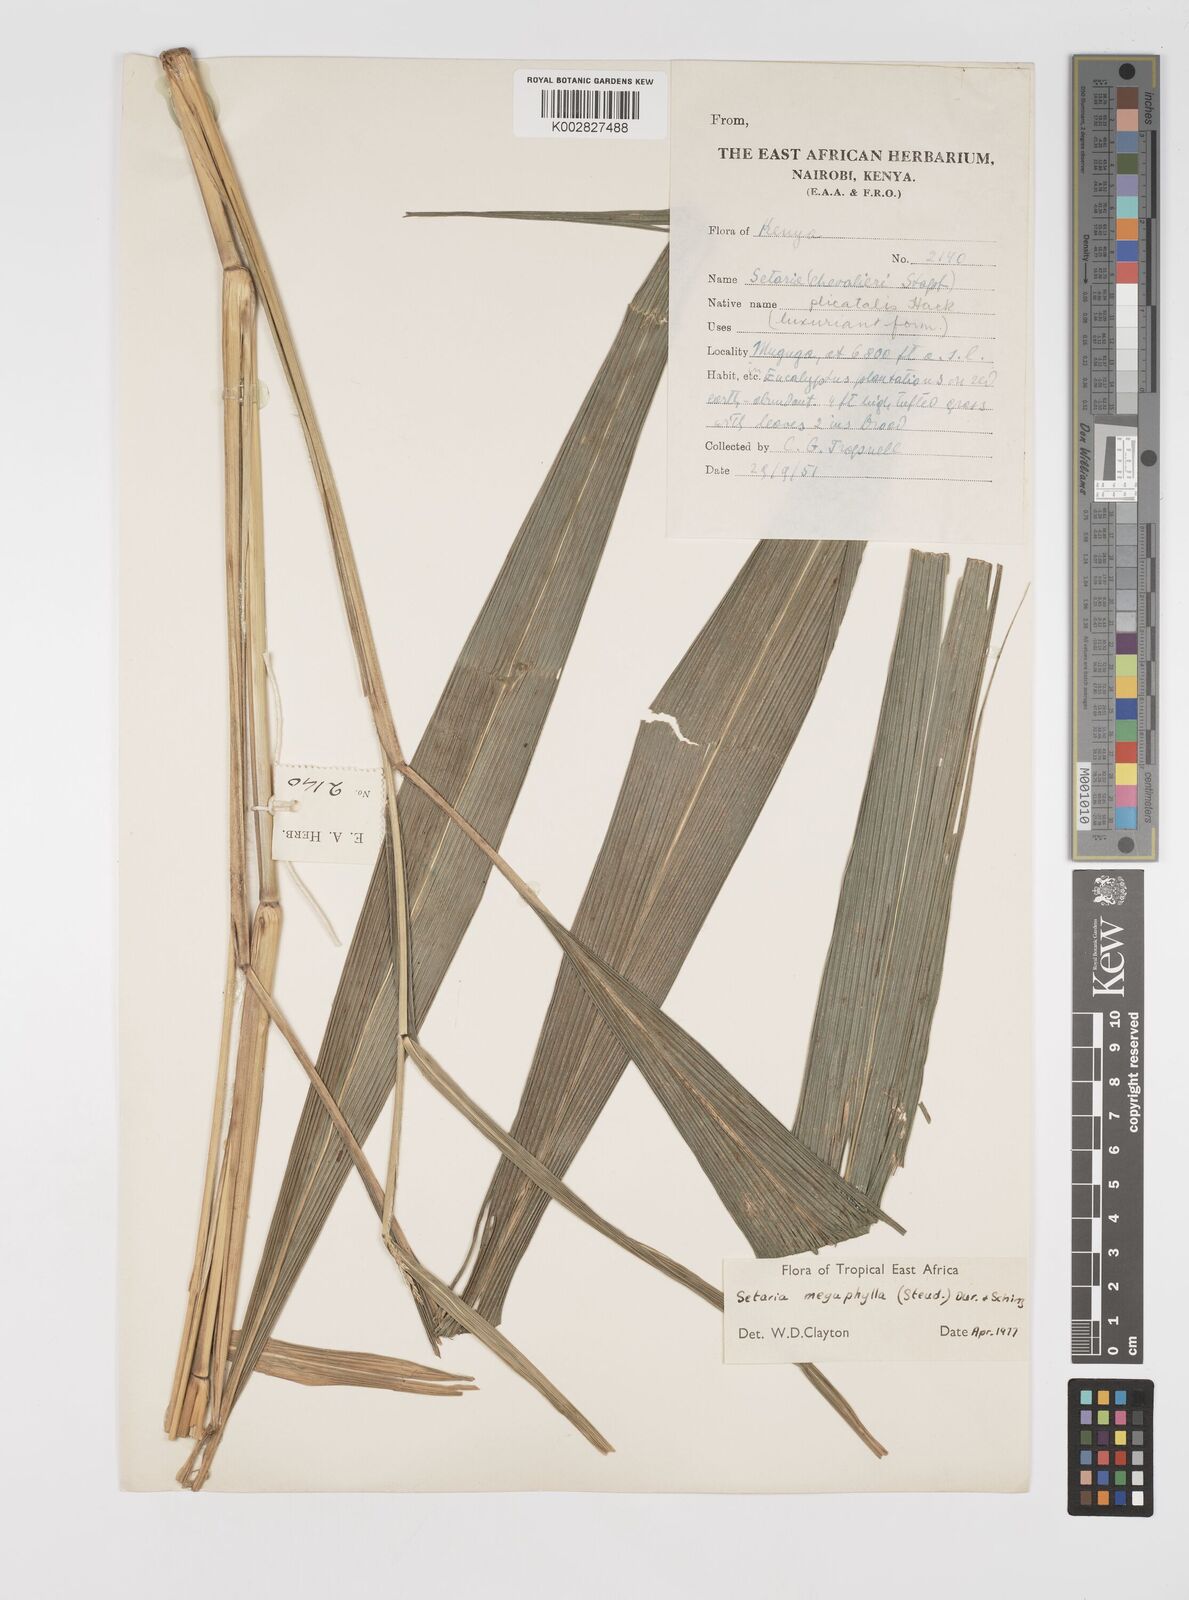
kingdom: Plantae
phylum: Tracheophyta
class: Liliopsida
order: Poales
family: Poaceae
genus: Setaria
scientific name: Setaria megaphylla
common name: Bigleaf bristlegrass
